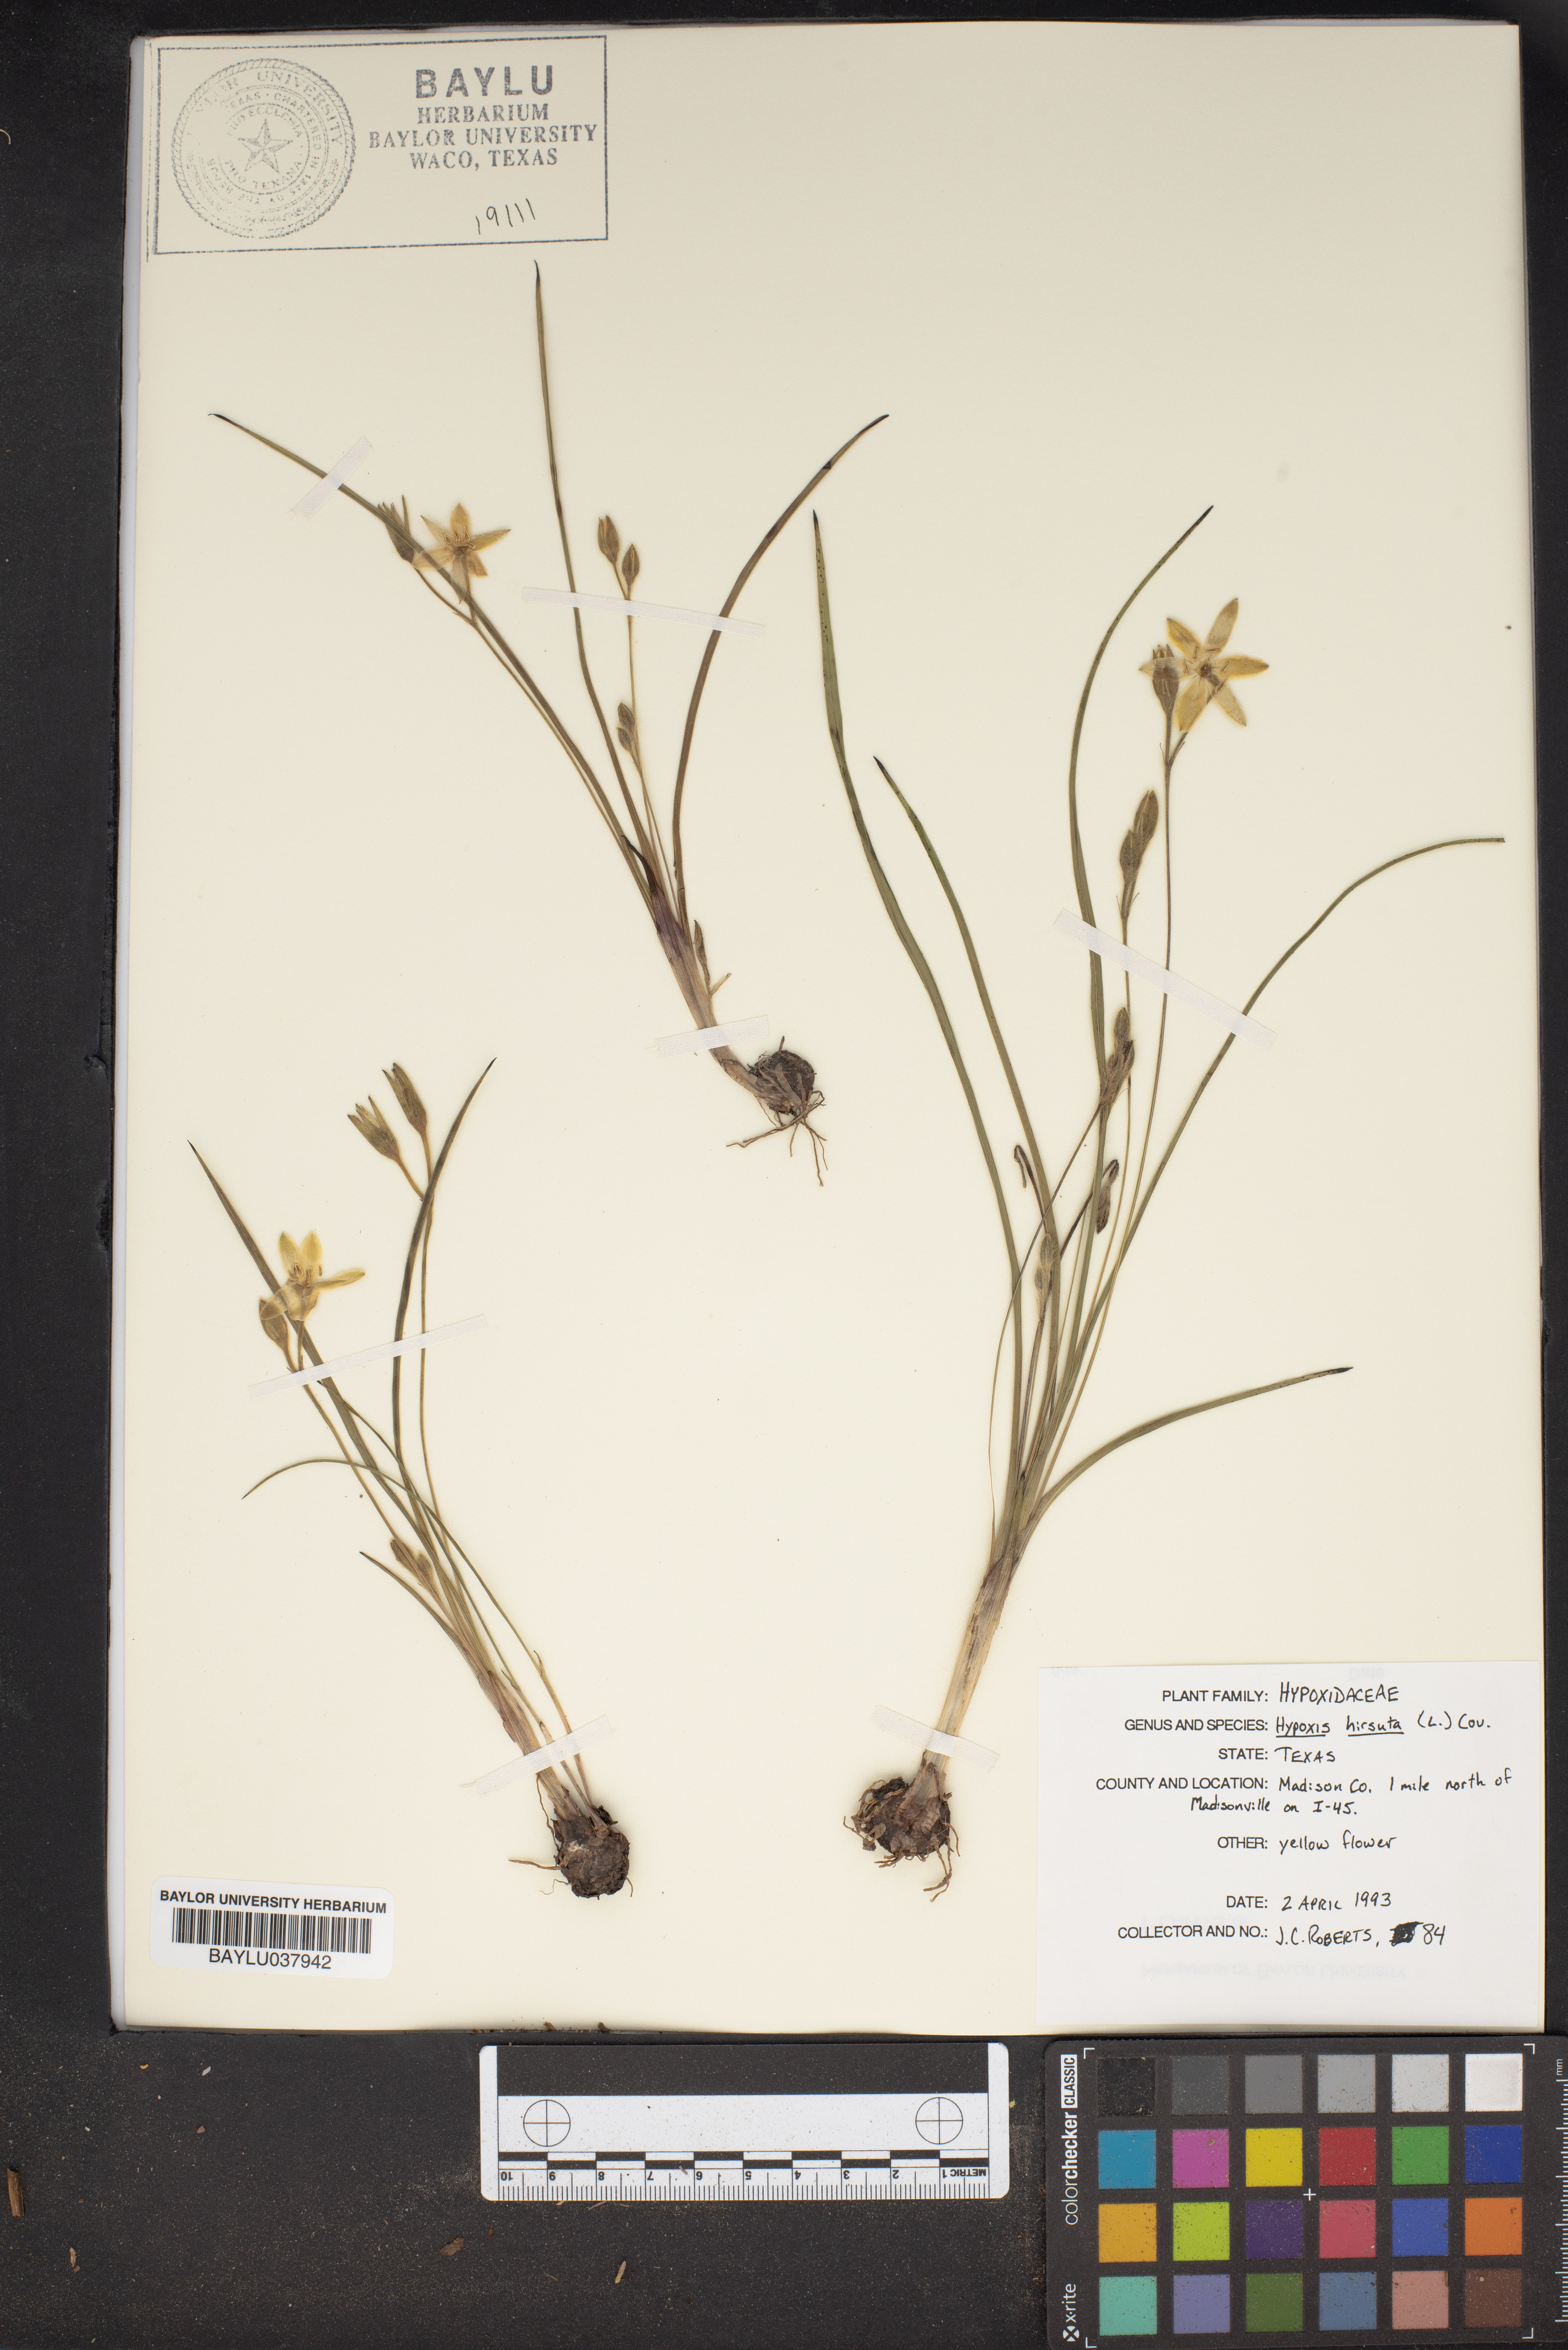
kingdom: Plantae
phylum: Tracheophyta
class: Liliopsida
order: Asparagales
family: Hypoxidaceae
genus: Hypoxis
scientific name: Hypoxis hirsuta
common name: Common goldstar
